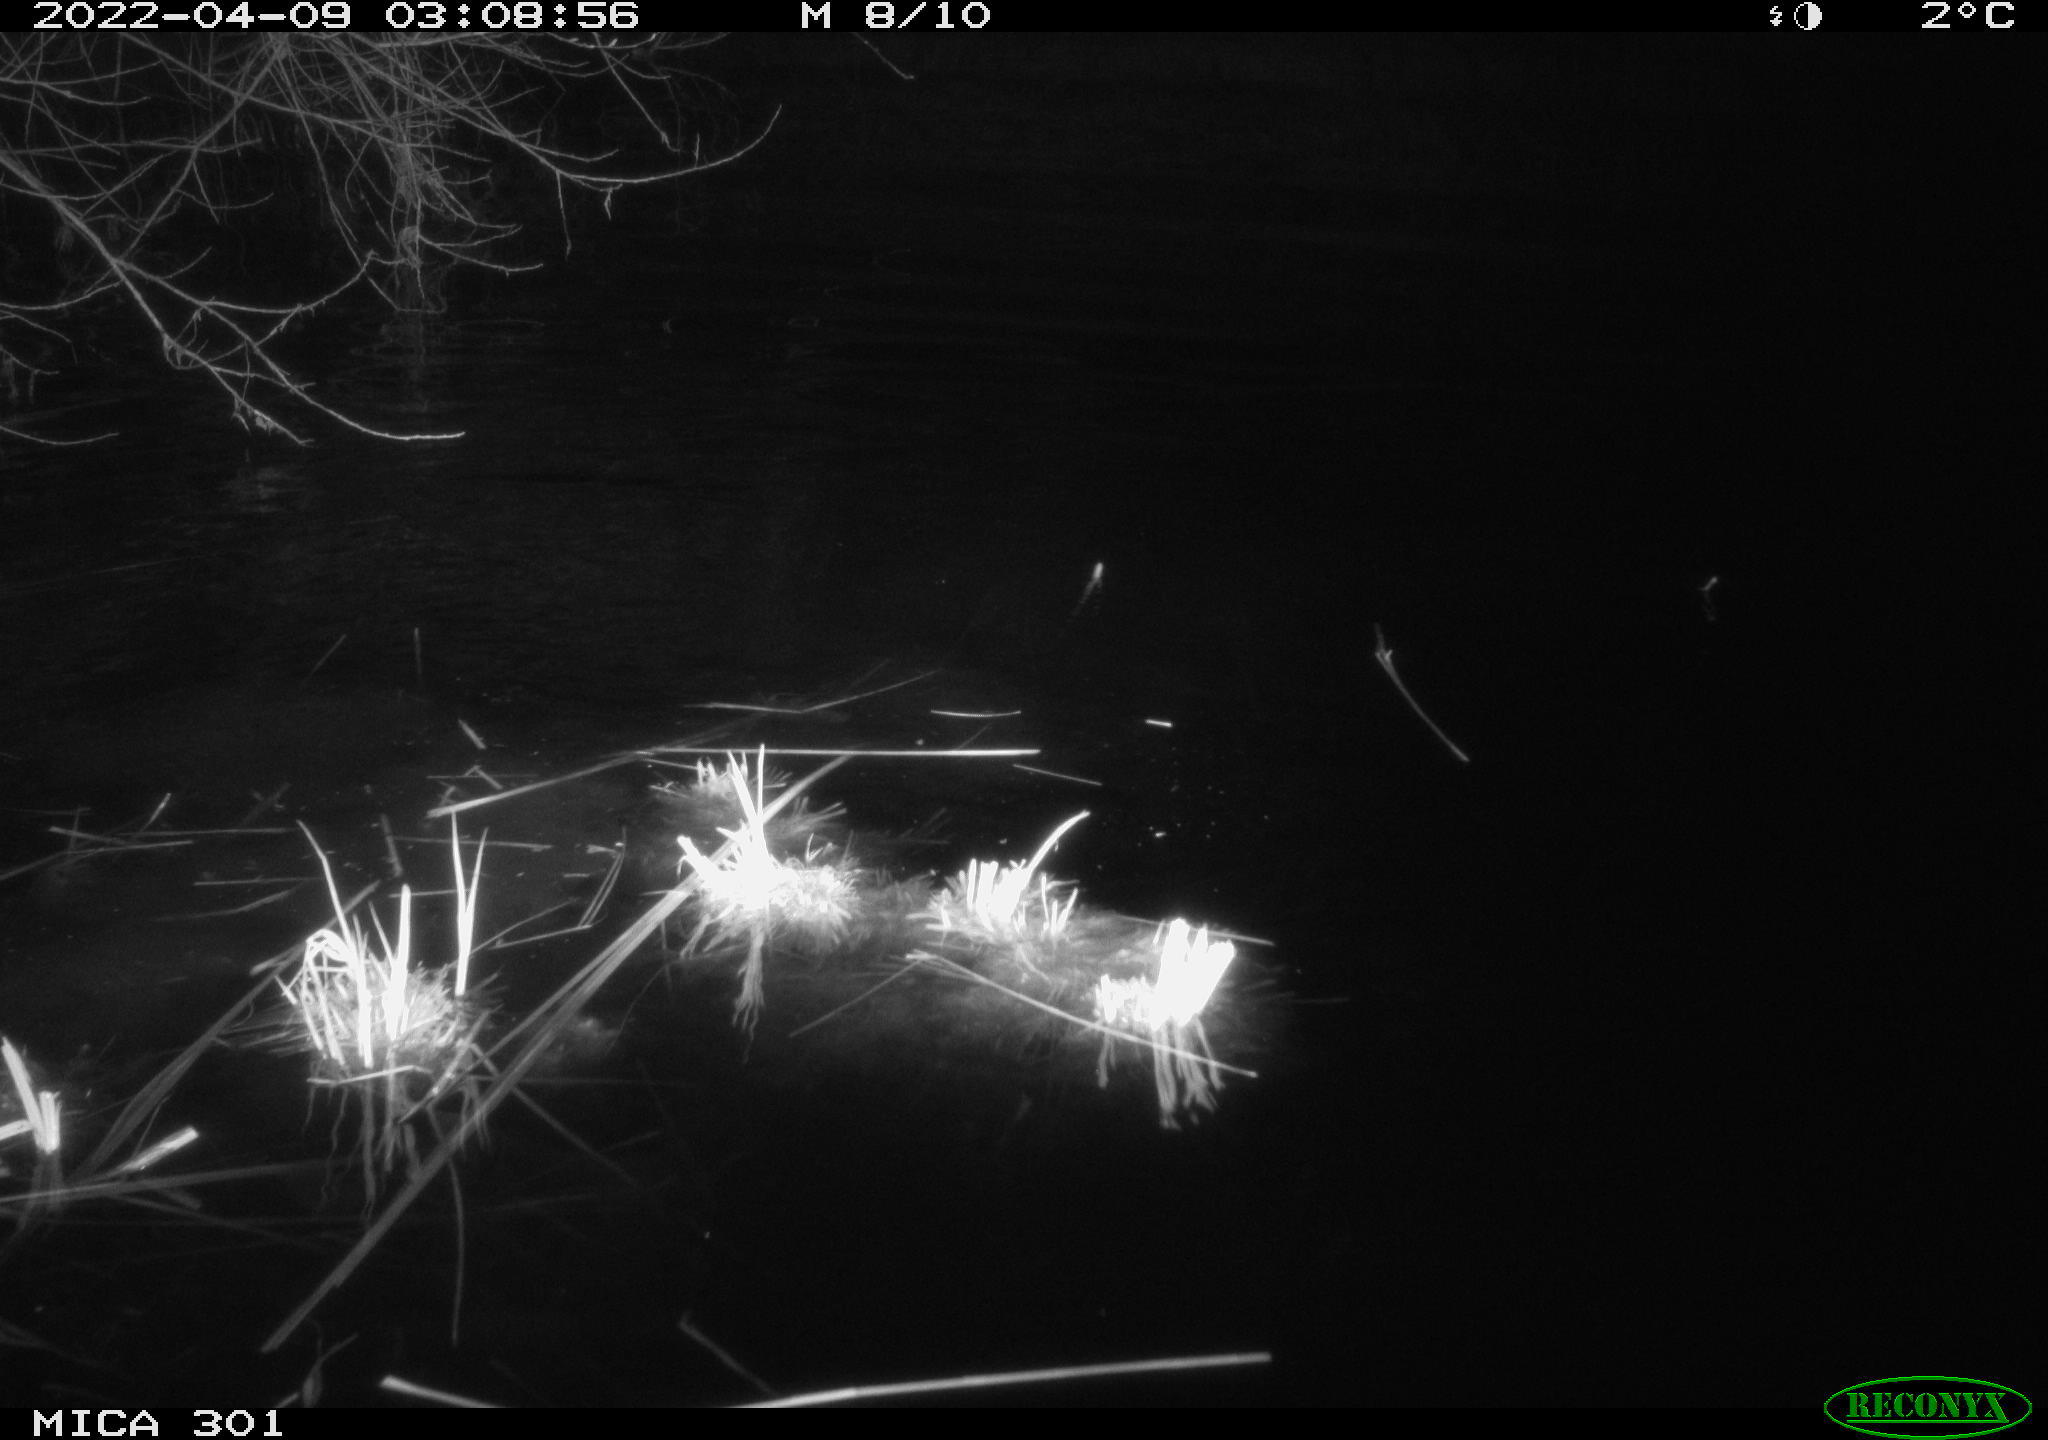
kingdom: Animalia
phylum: Chordata
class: Mammalia
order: Rodentia
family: Castoridae
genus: Castor
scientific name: Castor fiber
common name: Eurasian beaver
